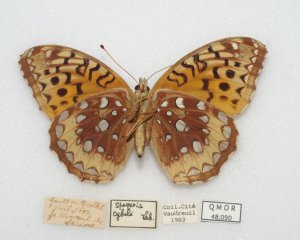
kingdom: Animalia
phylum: Arthropoda
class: Insecta
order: Lepidoptera
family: Nymphalidae
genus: Speyeria
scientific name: Speyeria cybele
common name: Great Spangled Fritillary
